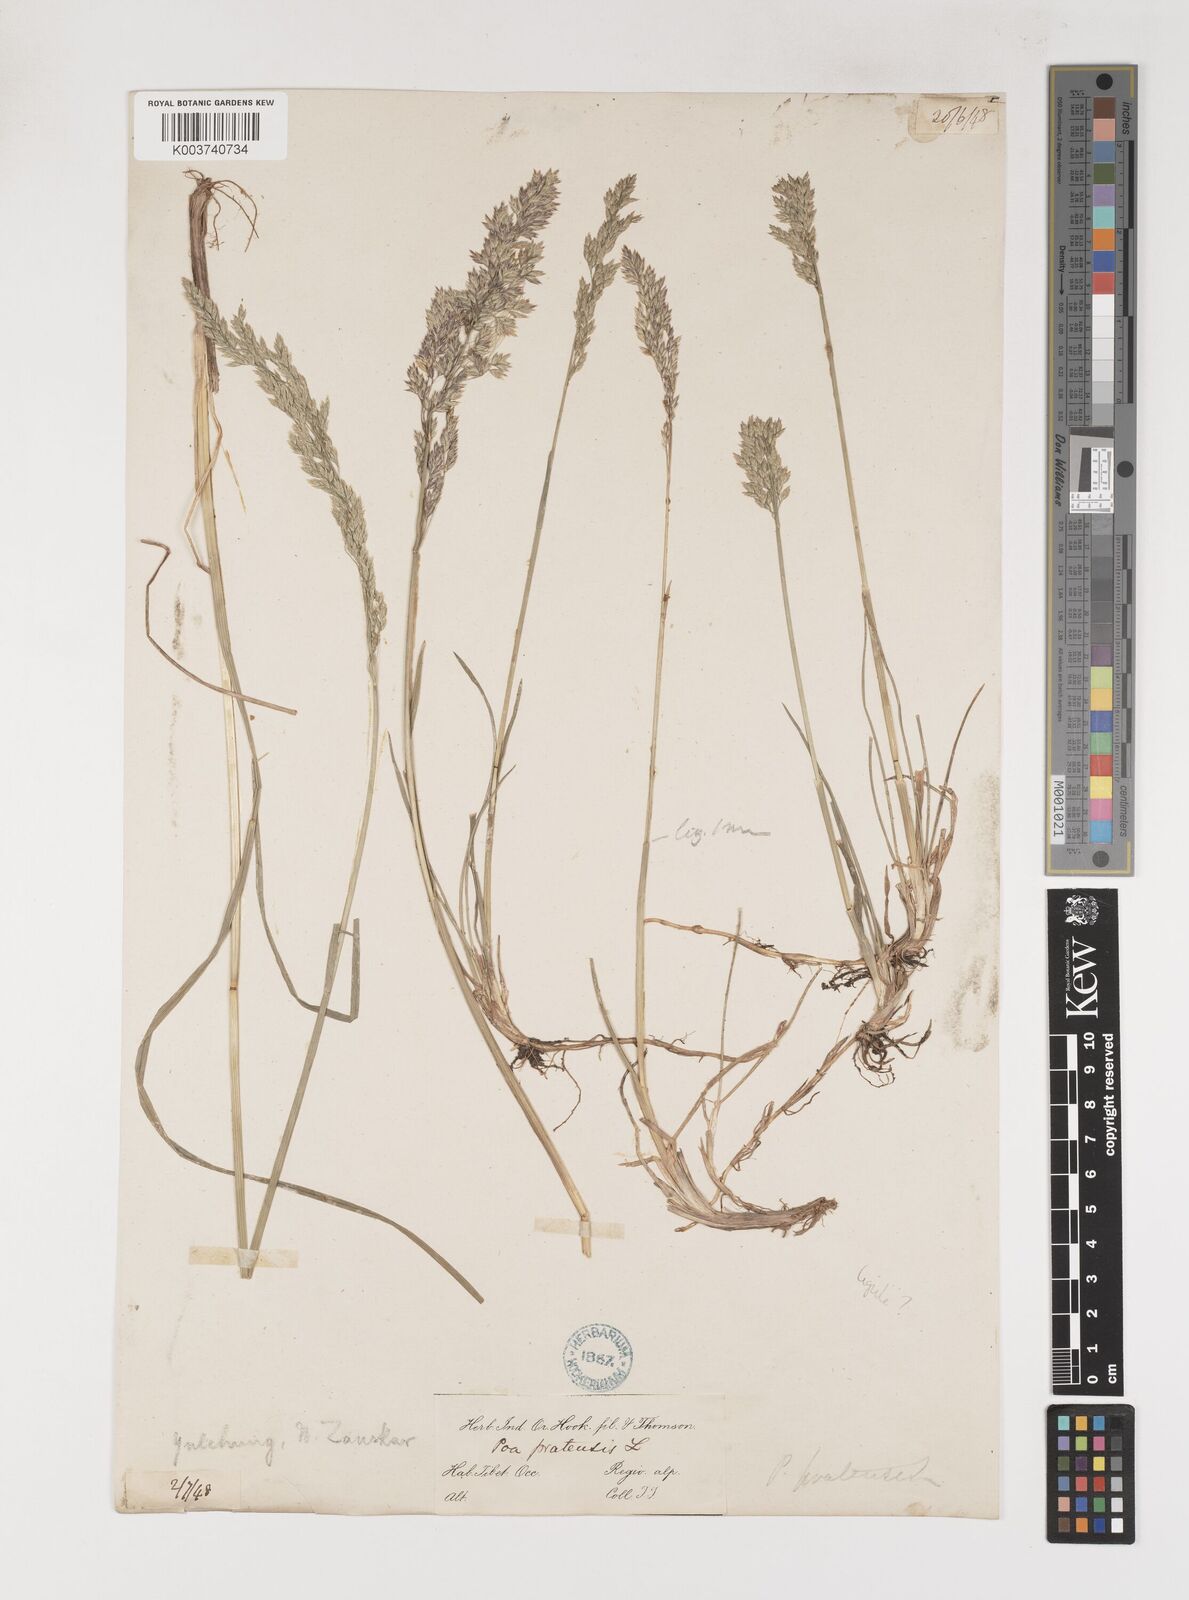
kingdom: Plantae
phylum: Tracheophyta
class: Liliopsida
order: Poales
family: Poaceae
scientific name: Poaceae
